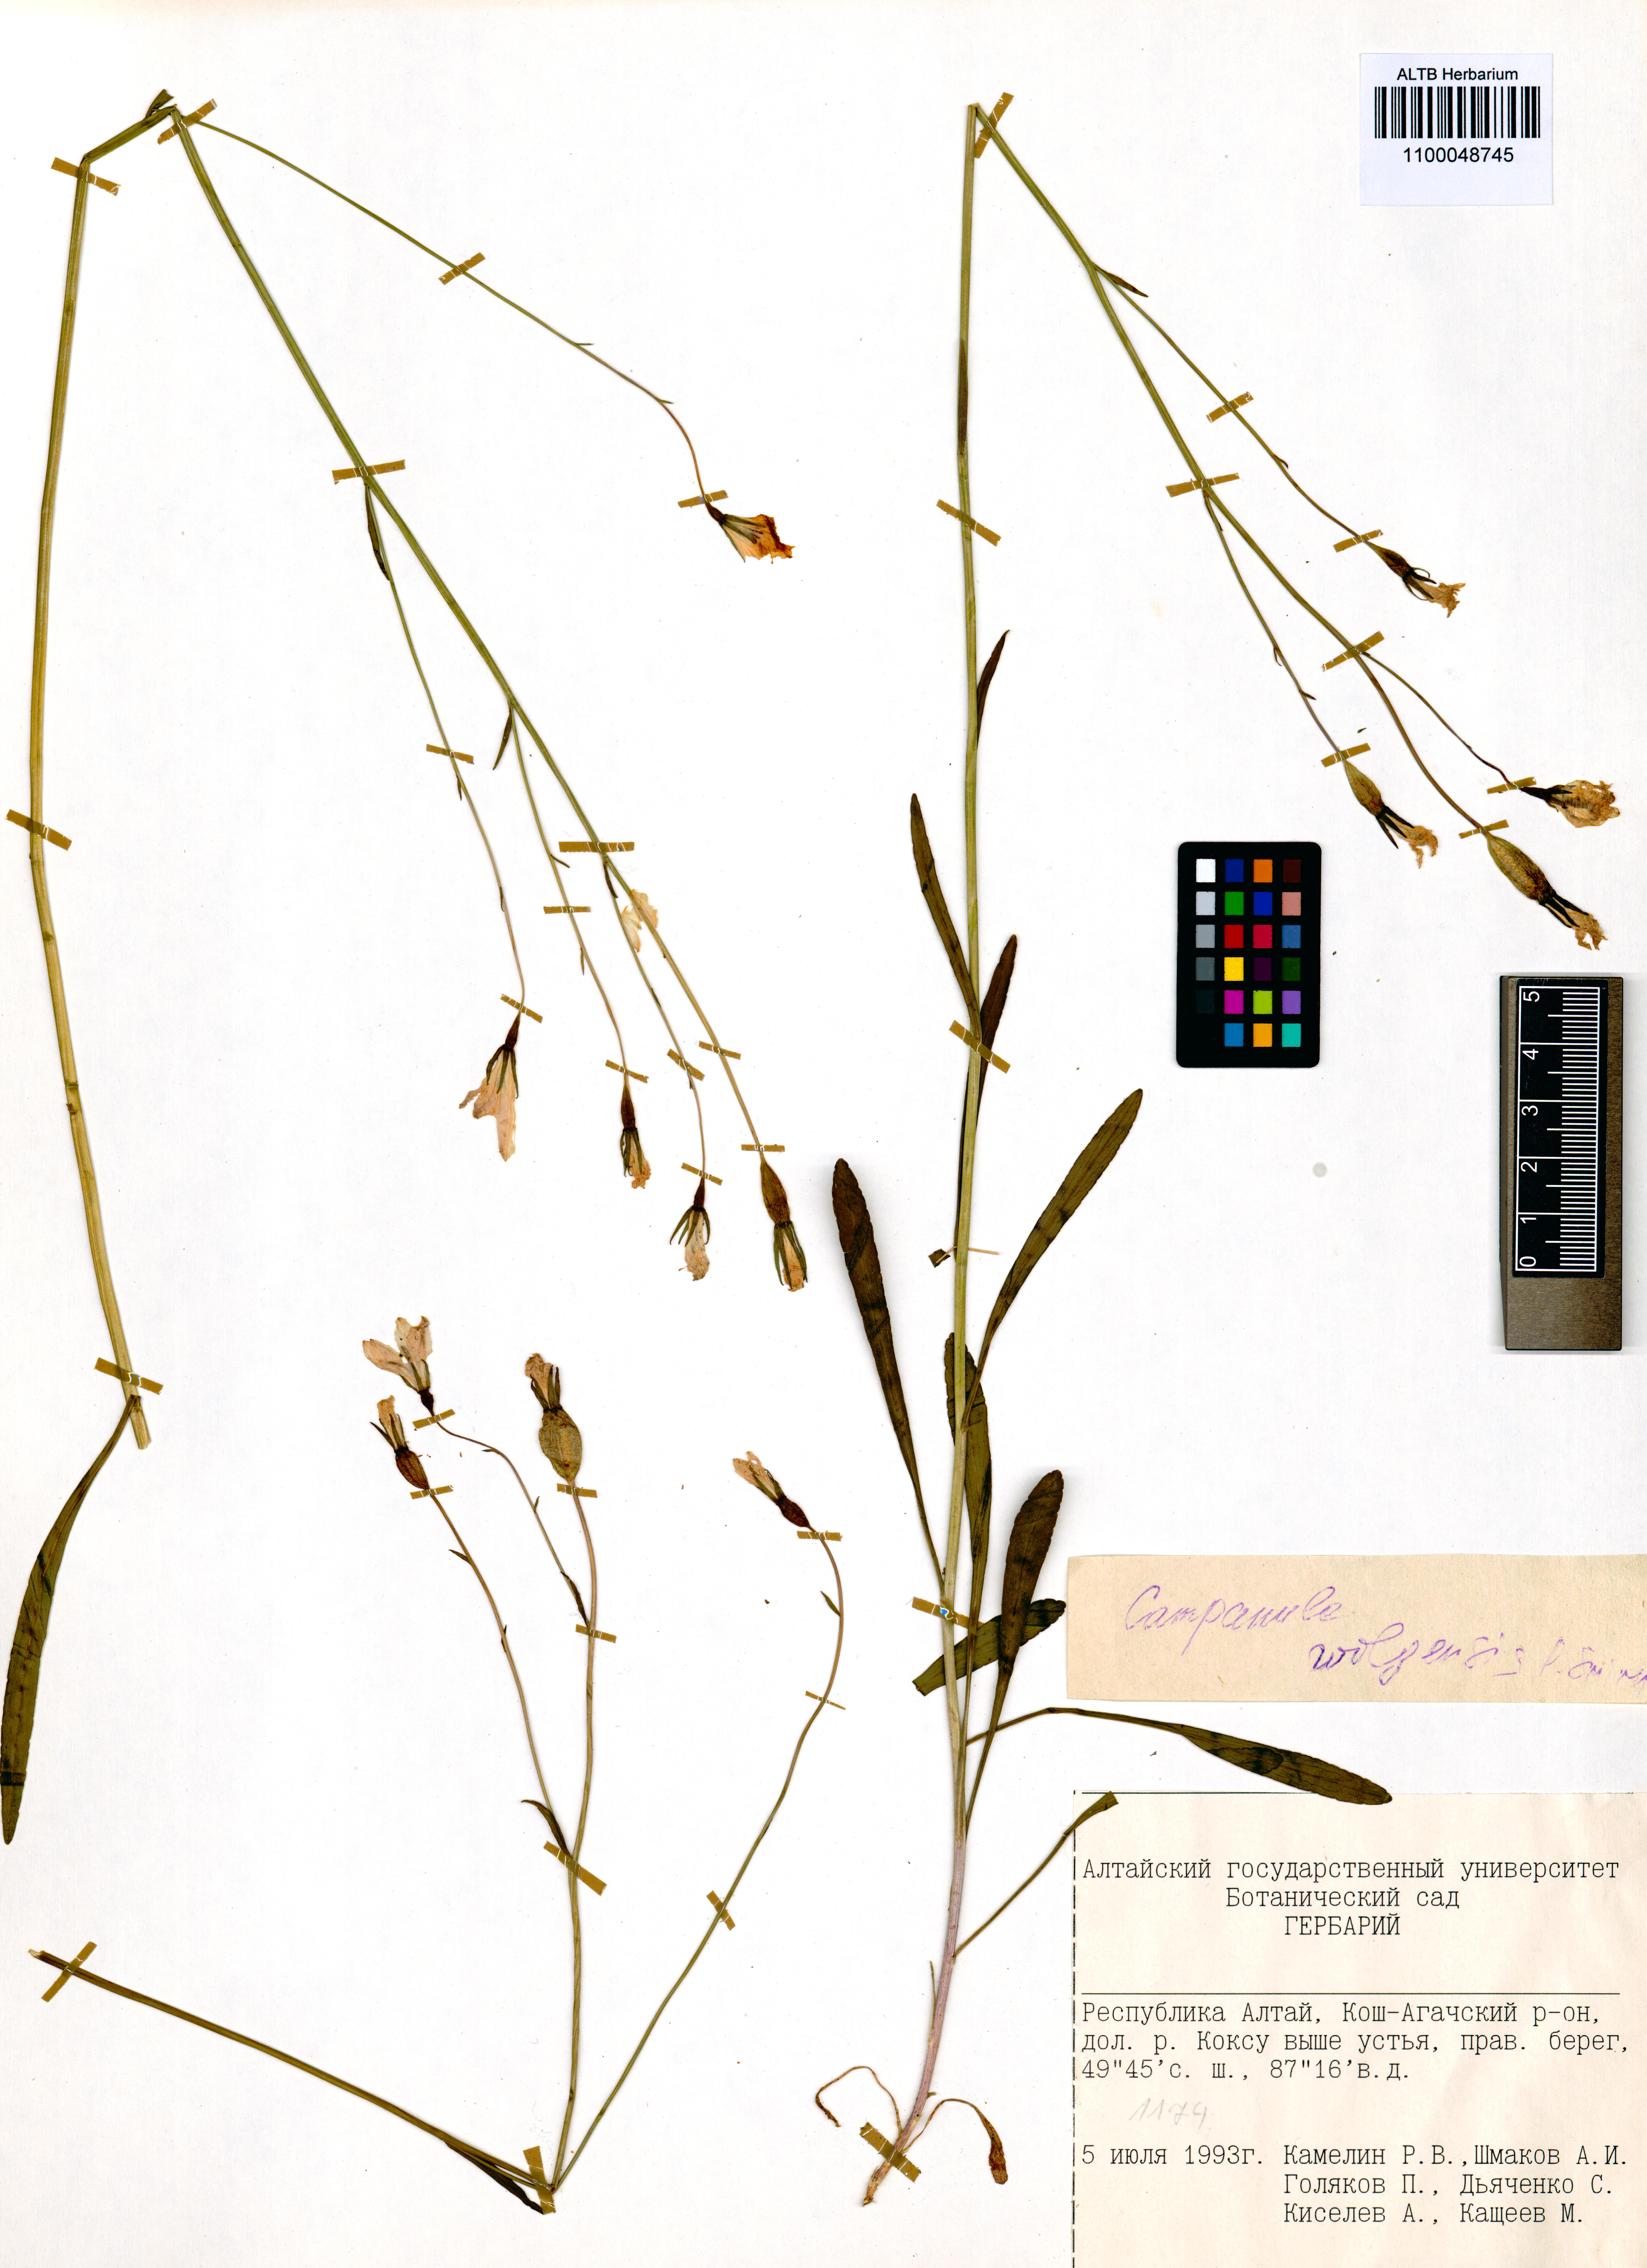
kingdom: Plantae
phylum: Tracheophyta
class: Magnoliopsida
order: Asterales
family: Campanulaceae
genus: Campanula
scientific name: Campanula stevenii
